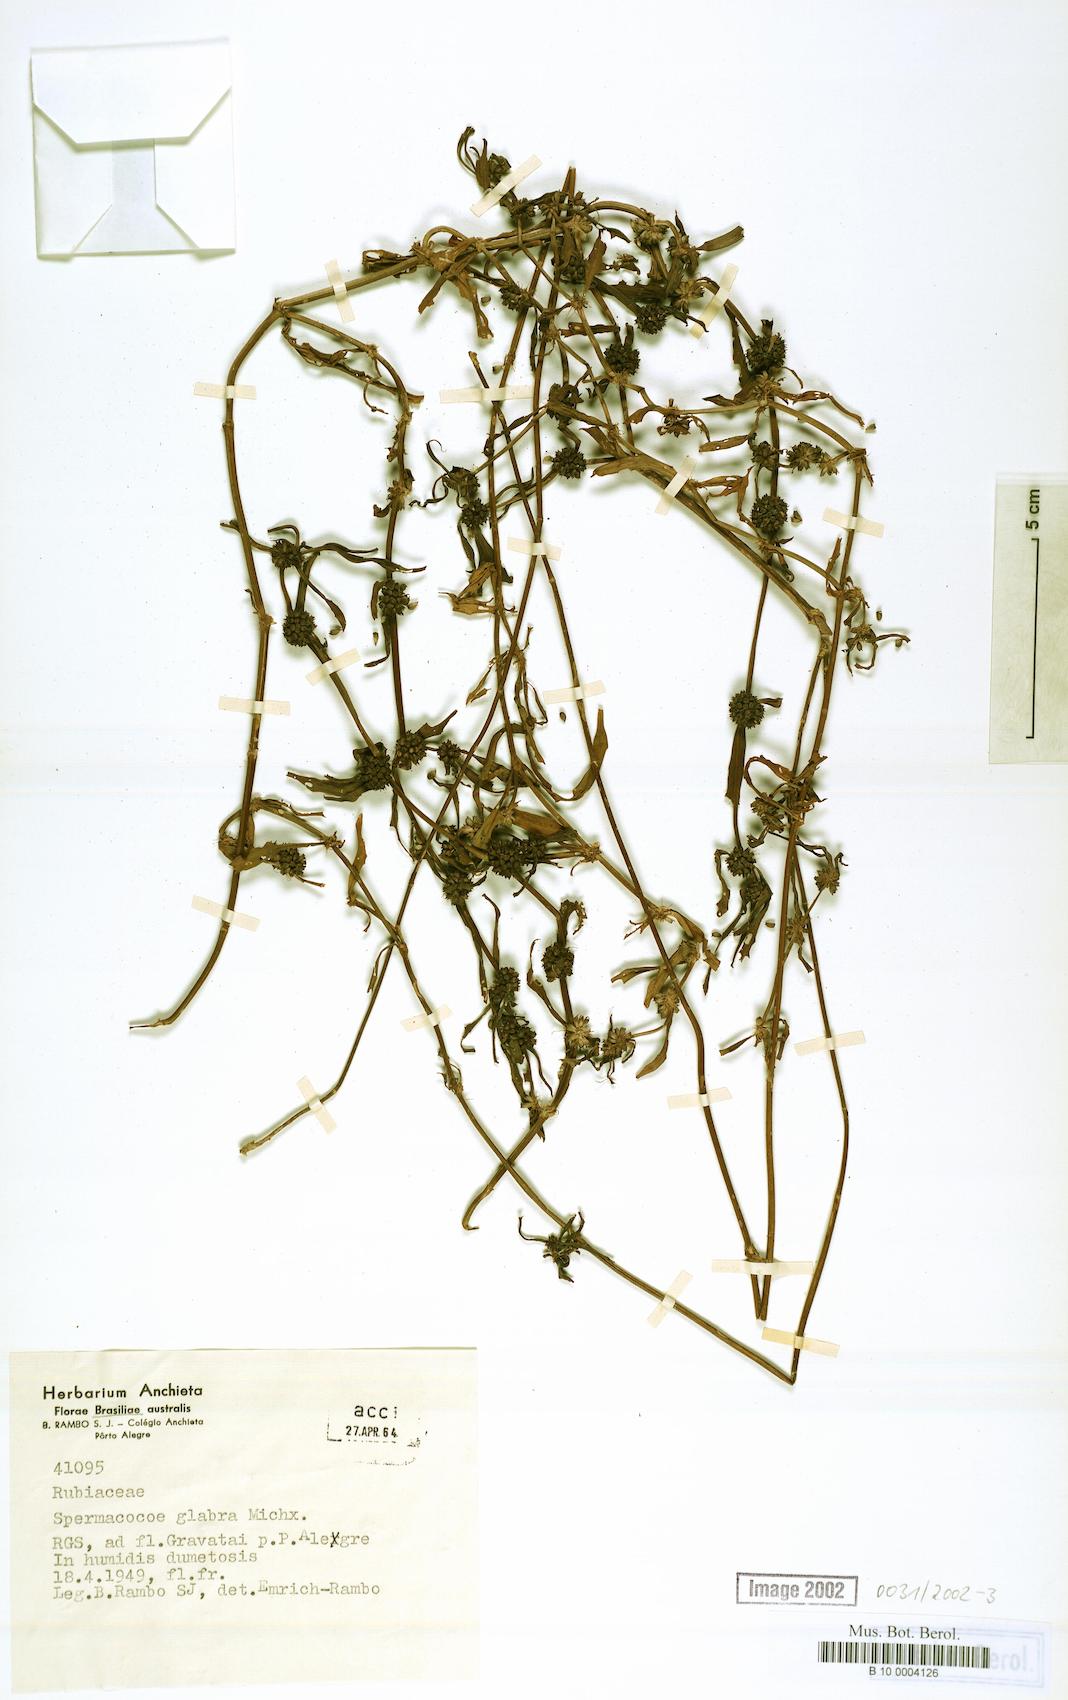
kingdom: Plantae
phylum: Tracheophyta
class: Magnoliopsida
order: Gentianales
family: Rubiaceae
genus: Spermacoce
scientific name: Spermacoce glabra
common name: Smooth buttonweed
